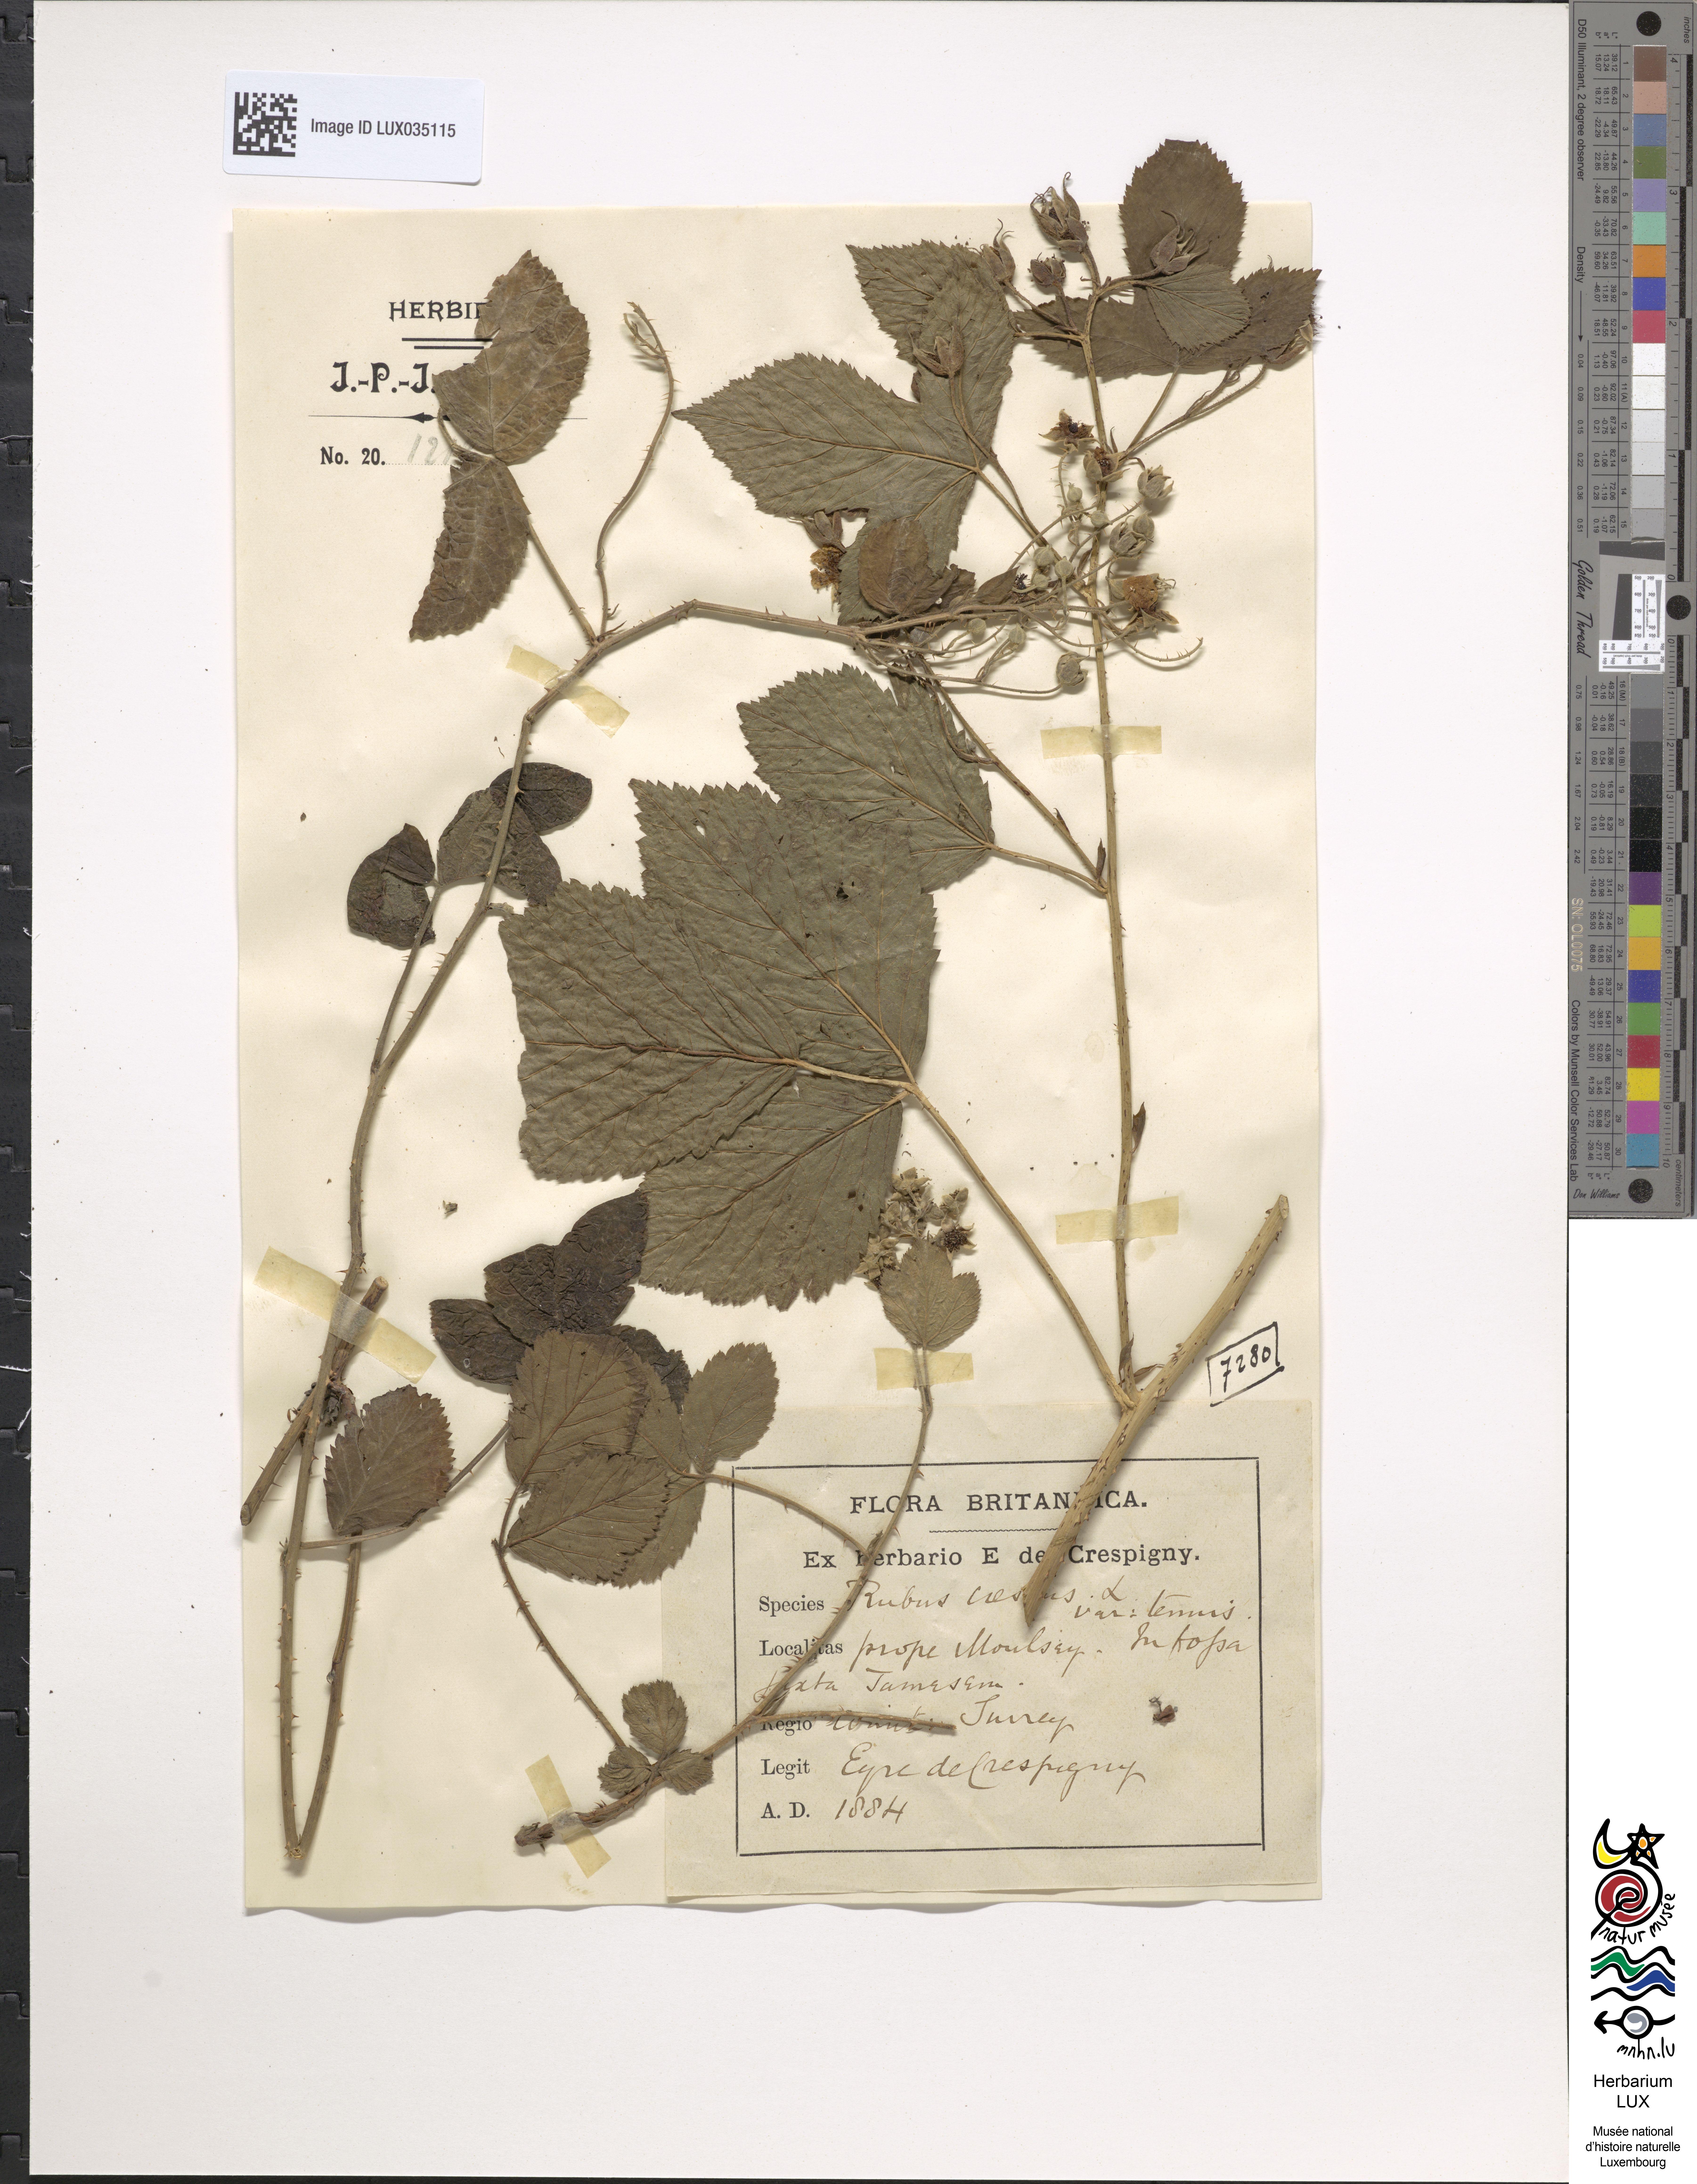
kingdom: Plantae
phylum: Tracheophyta
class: Magnoliopsida
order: Rosales
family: Rosaceae
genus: Rubus
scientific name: Rubus caesius
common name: Dewberry
